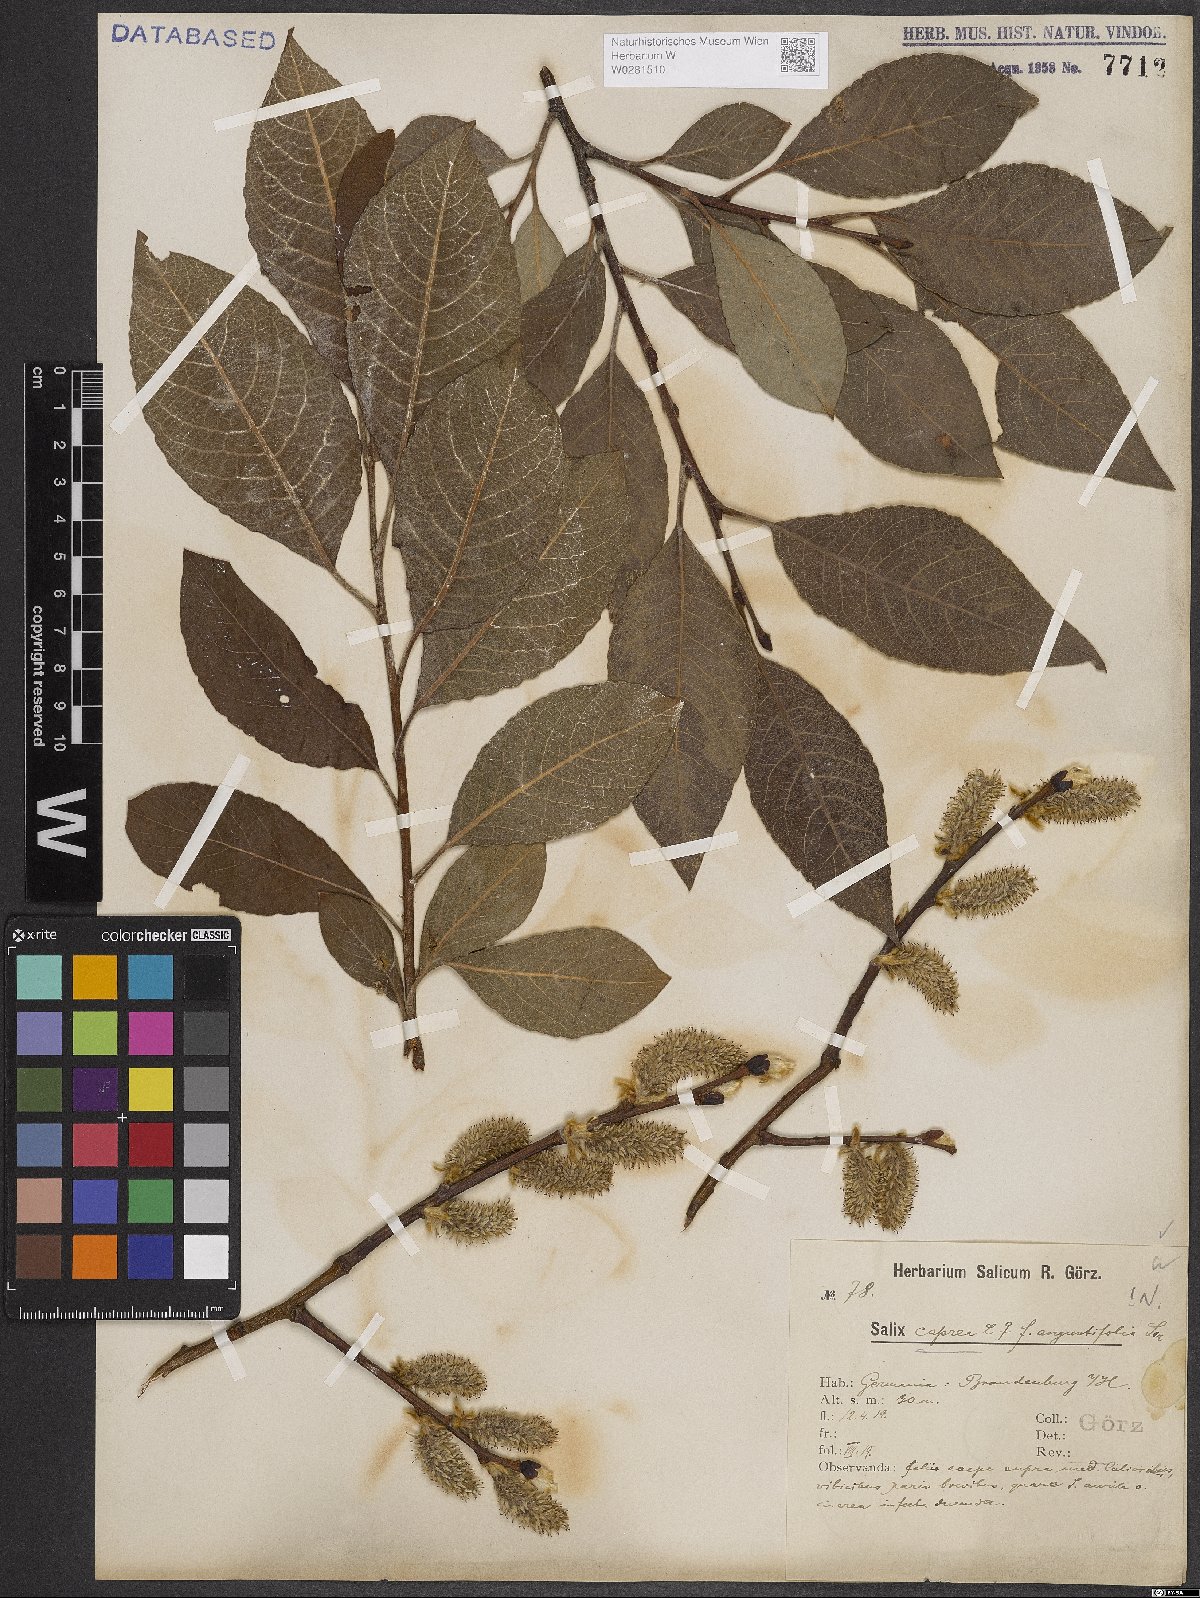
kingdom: Plantae
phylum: Tracheophyta
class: Magnoliopsida
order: Malpighiales
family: Salicaceae
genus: Salix
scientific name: Salix caprea
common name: Goat willow
